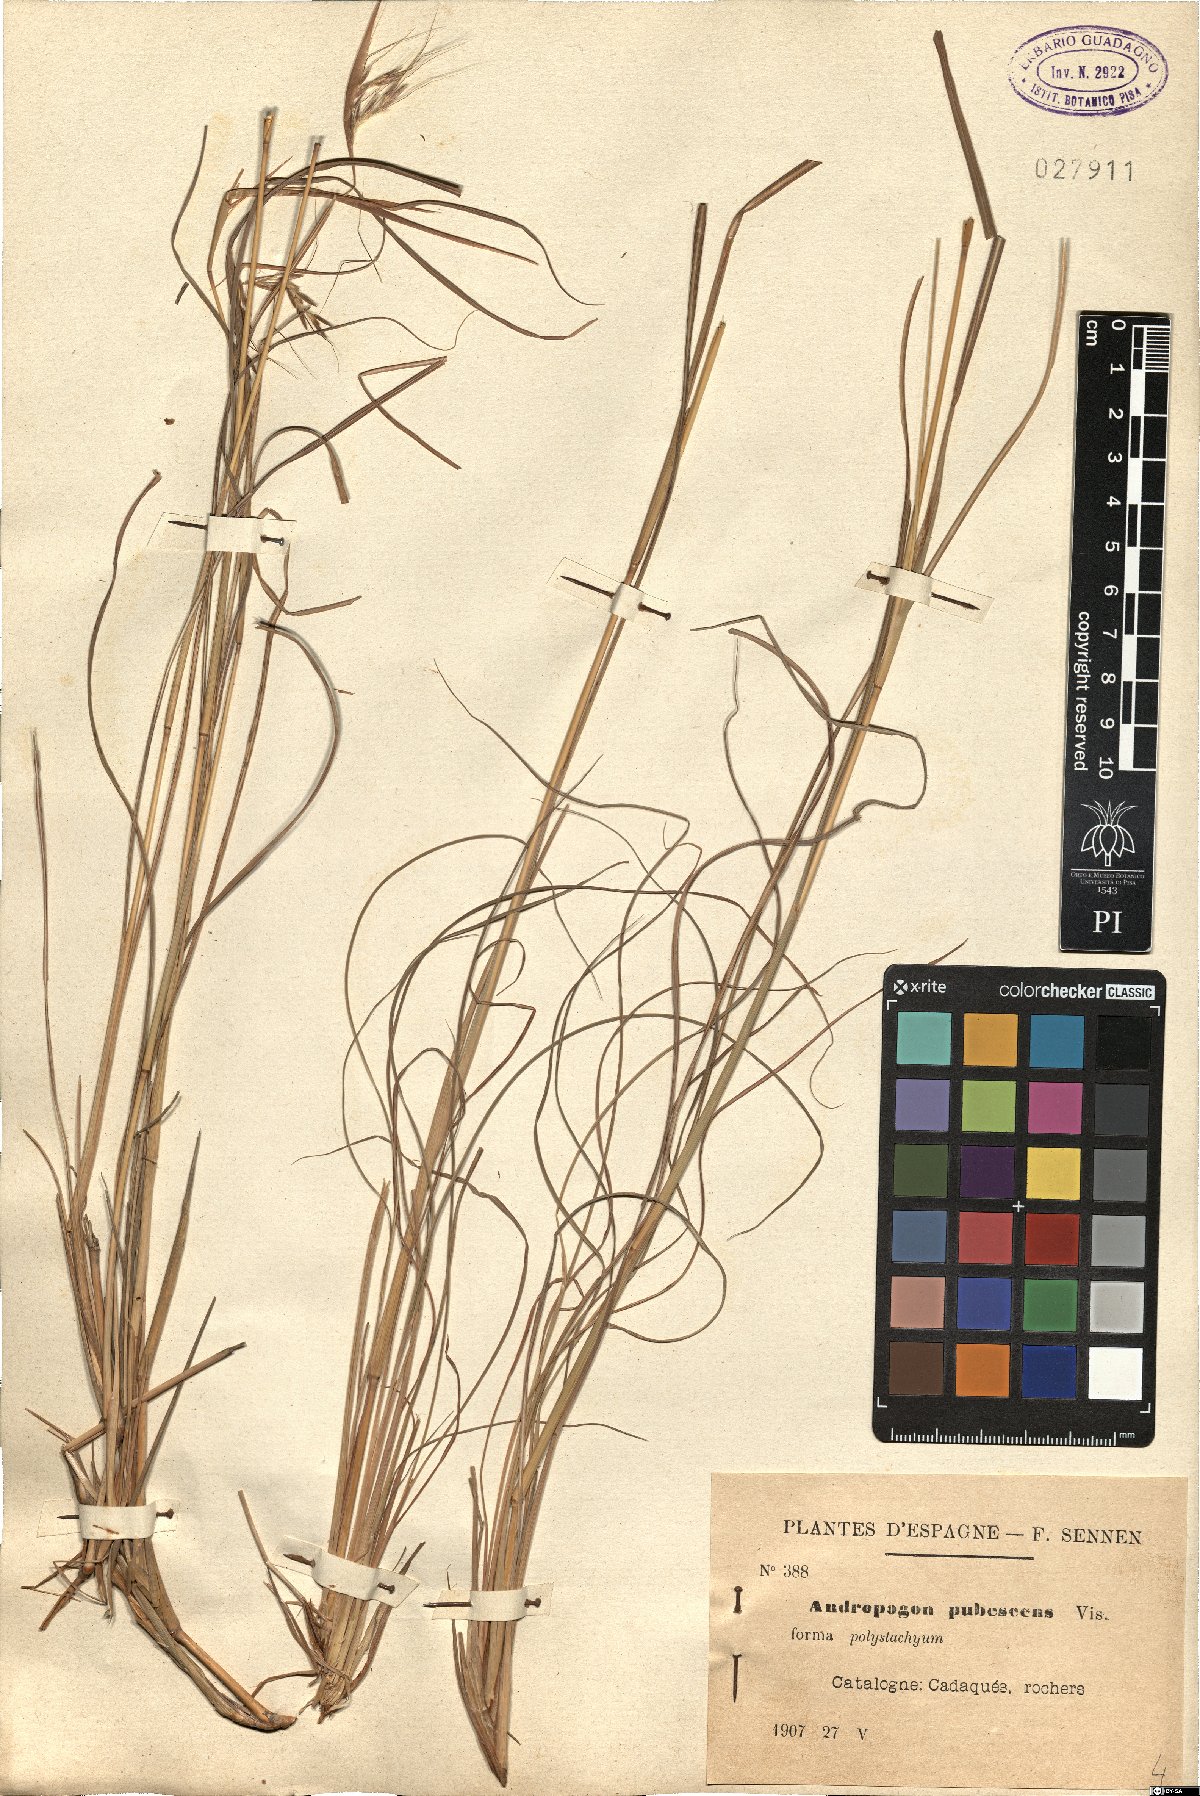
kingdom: Plantae
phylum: Tracheophyta
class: Liliopsida
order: Poales
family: Poaceae
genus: Stapfochloa
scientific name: Stapfochloa ciliata
